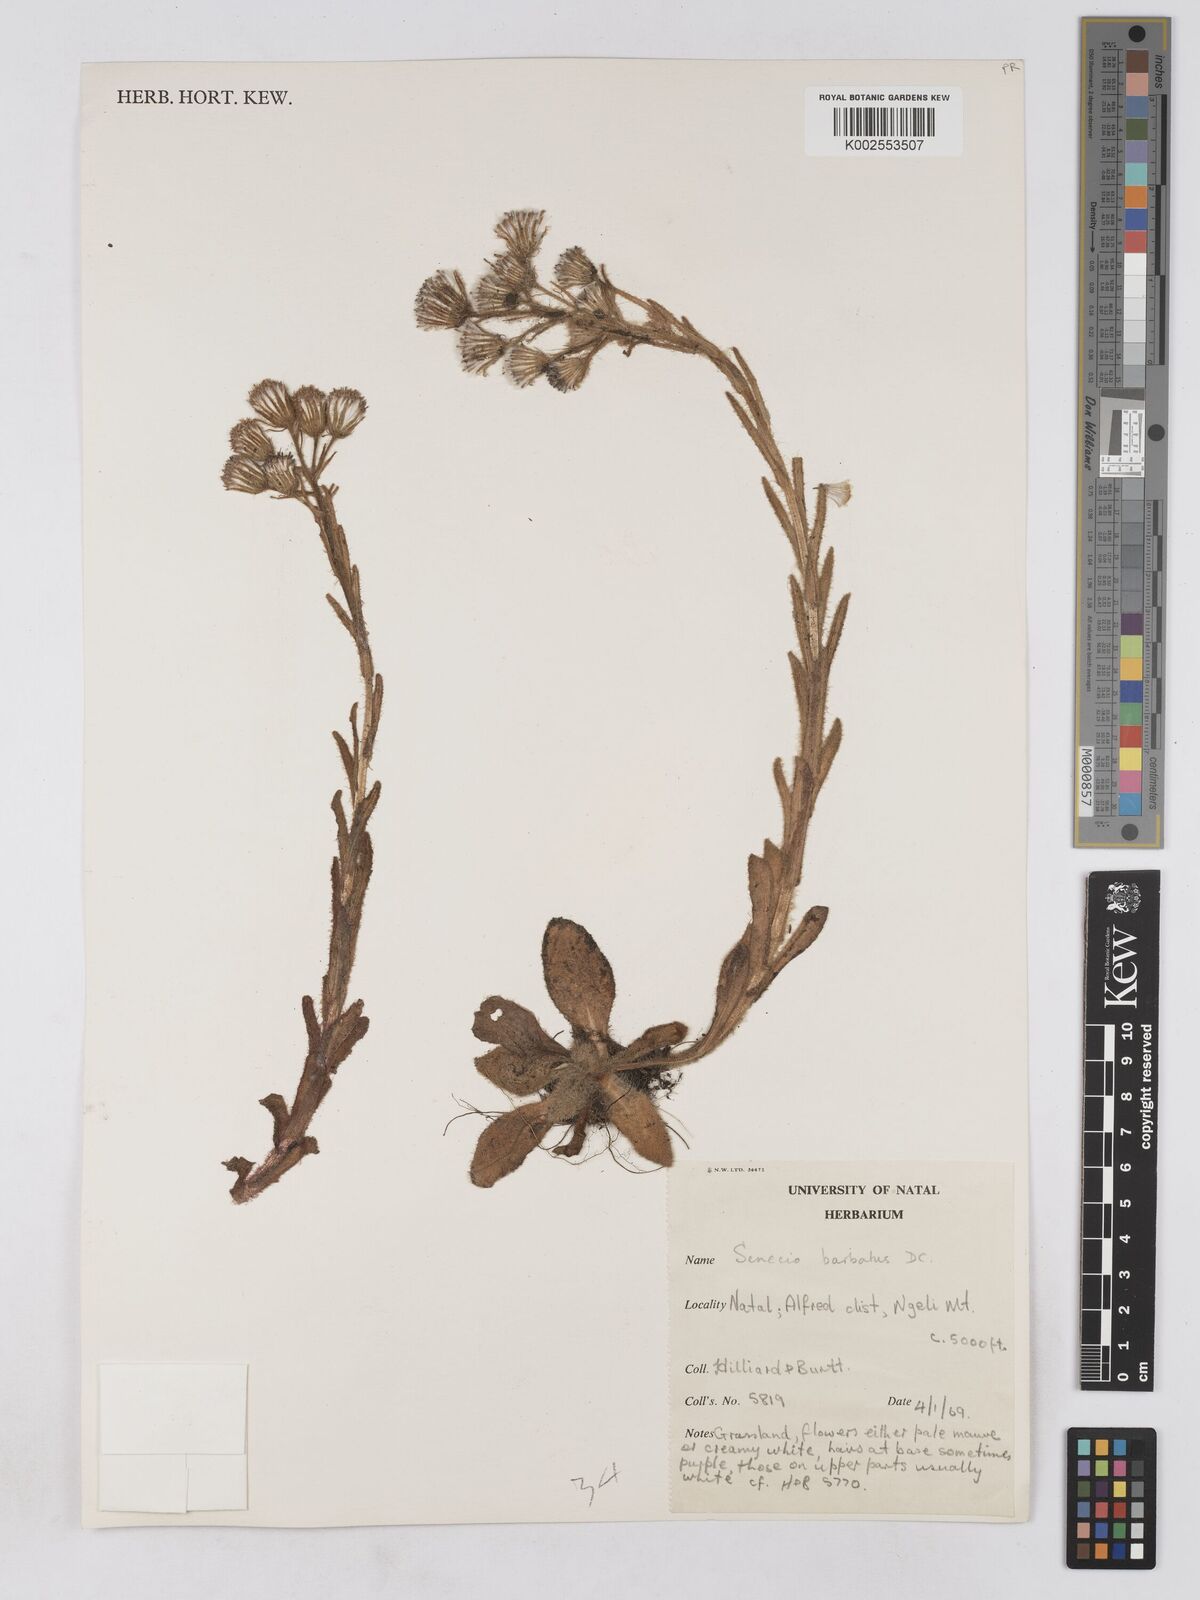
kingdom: Plantae
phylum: Tracheophyta
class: Magnoliopsida
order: Asterales
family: Asteraceae
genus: Senecio
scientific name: Senecio barbatus
